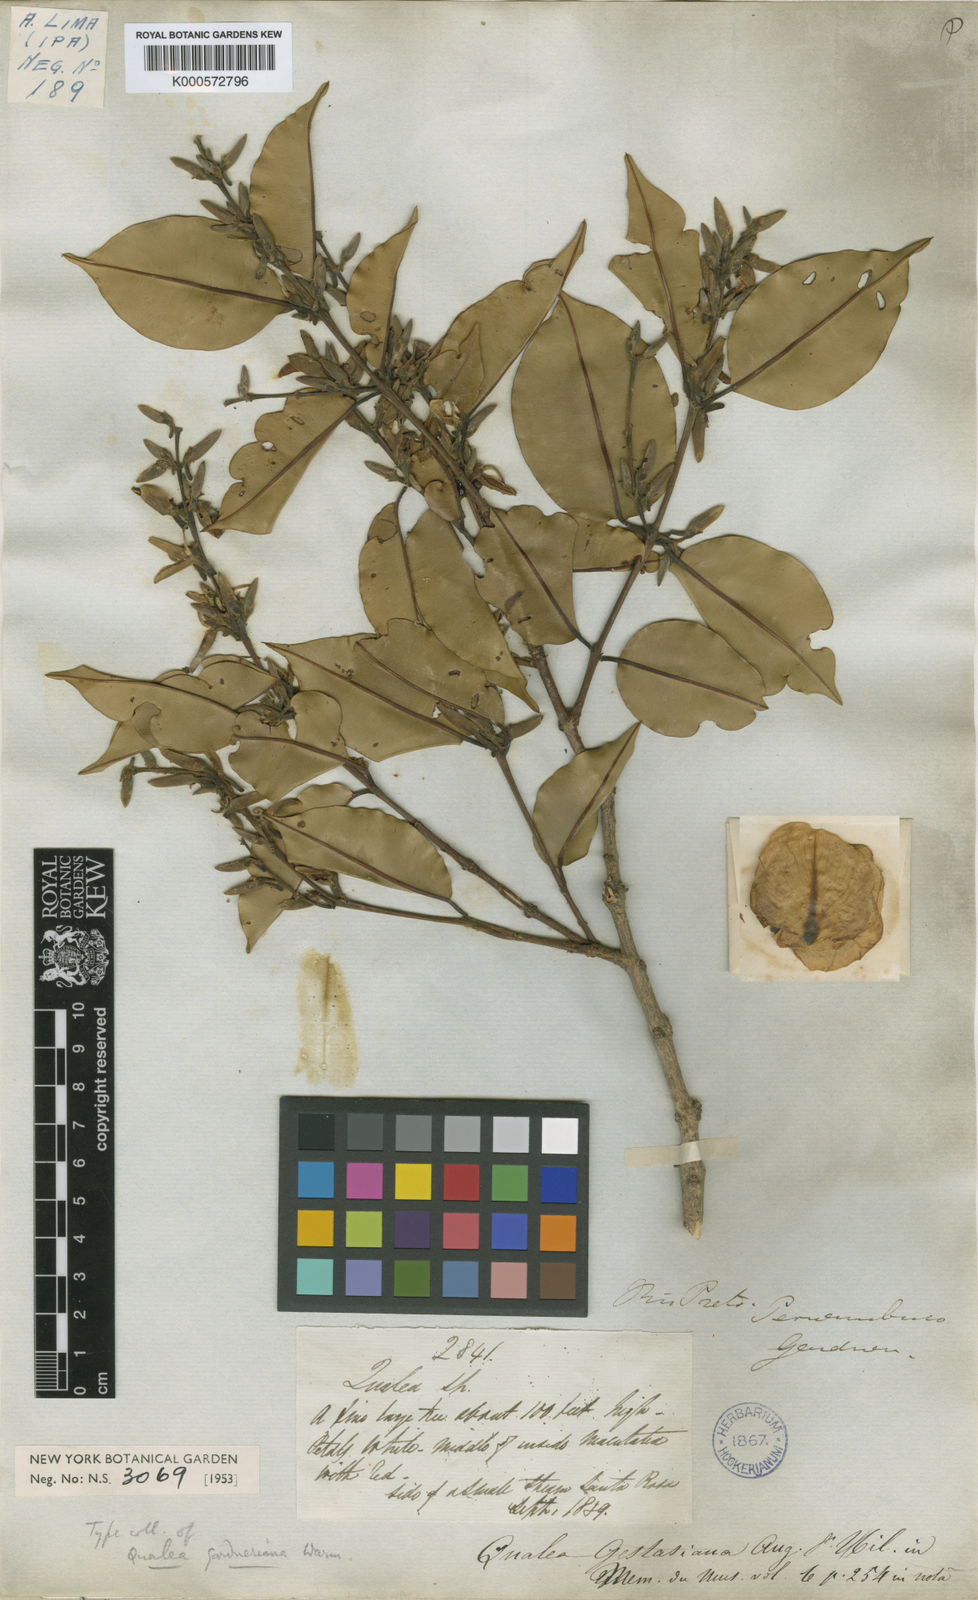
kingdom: Plantae
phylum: Tracheophyta
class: Magnoliopsida
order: Myrtales
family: Vochysiaceae
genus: Ruizterania
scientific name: Ruizterania gardneriana
